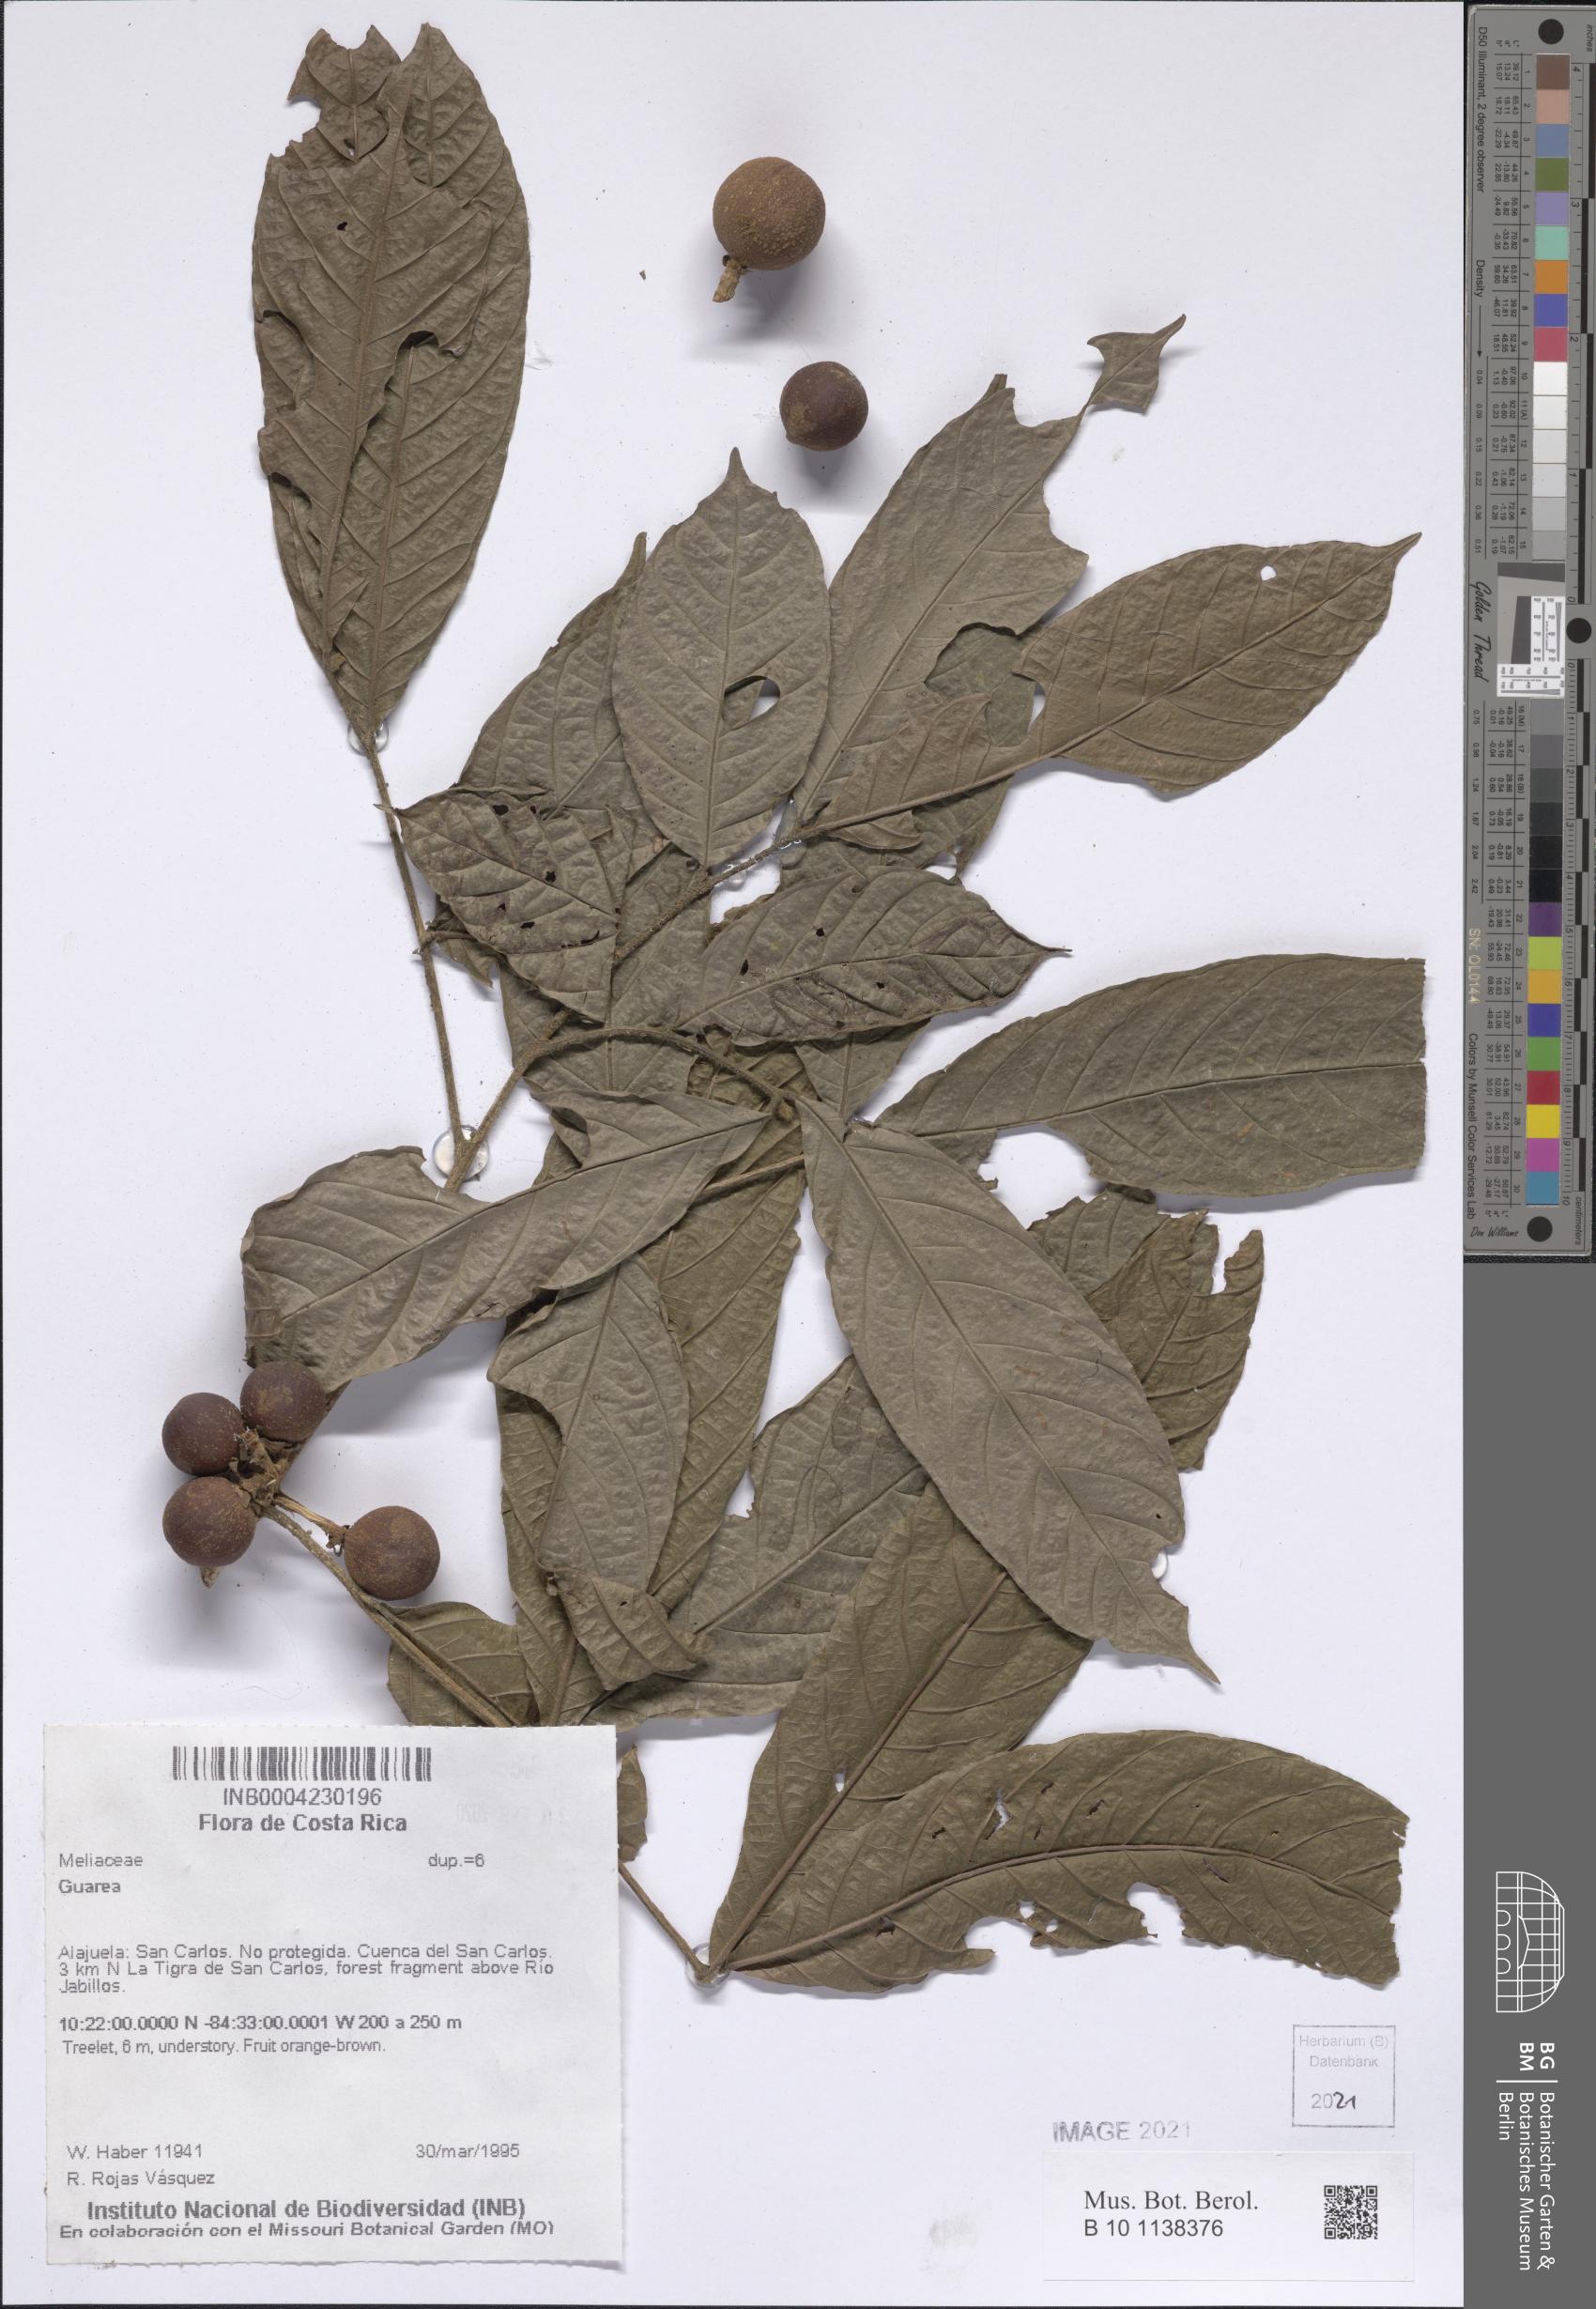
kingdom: Plantae
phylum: Tracheophyta
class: Magnoliopsida
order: Sapindales
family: Meliaceae
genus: Guarea
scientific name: Guarea
